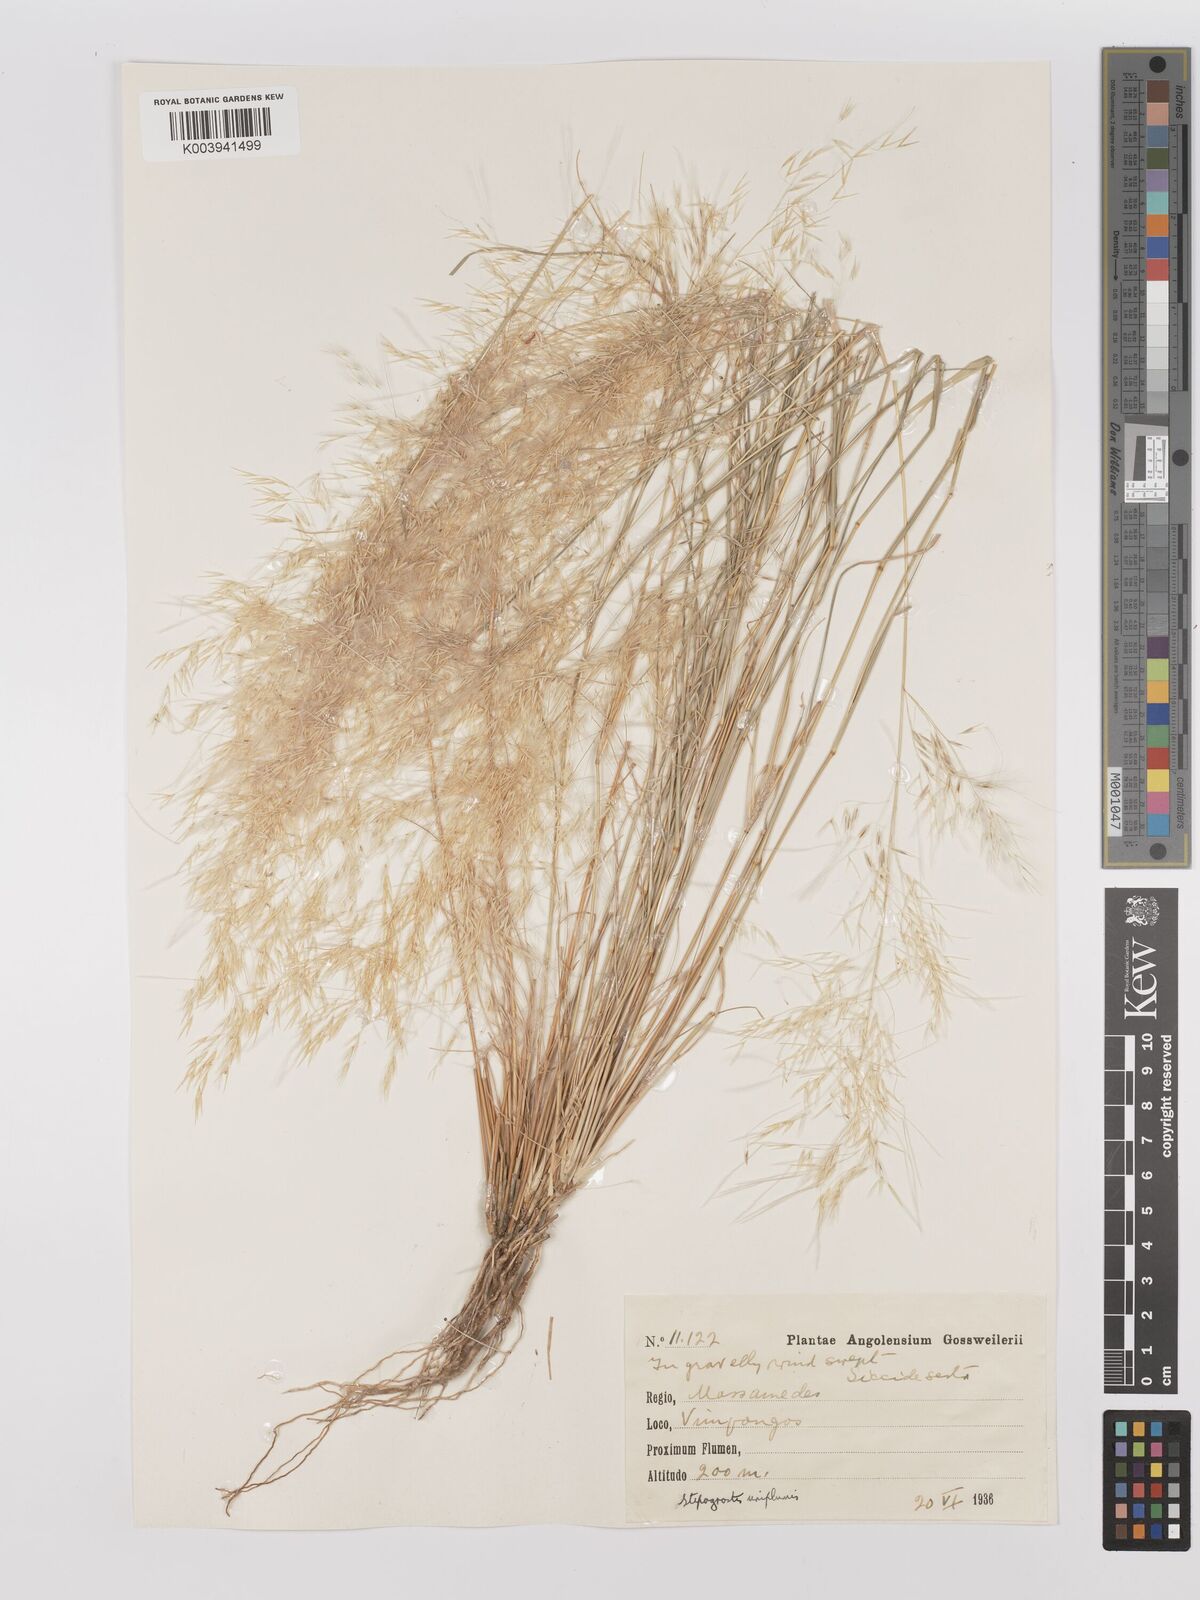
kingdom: Plantae
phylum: Tracheophyta
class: Liliopsida
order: Poales
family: Poaceae
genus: Stipagrostis
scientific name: Stipagrostis uniplumis
